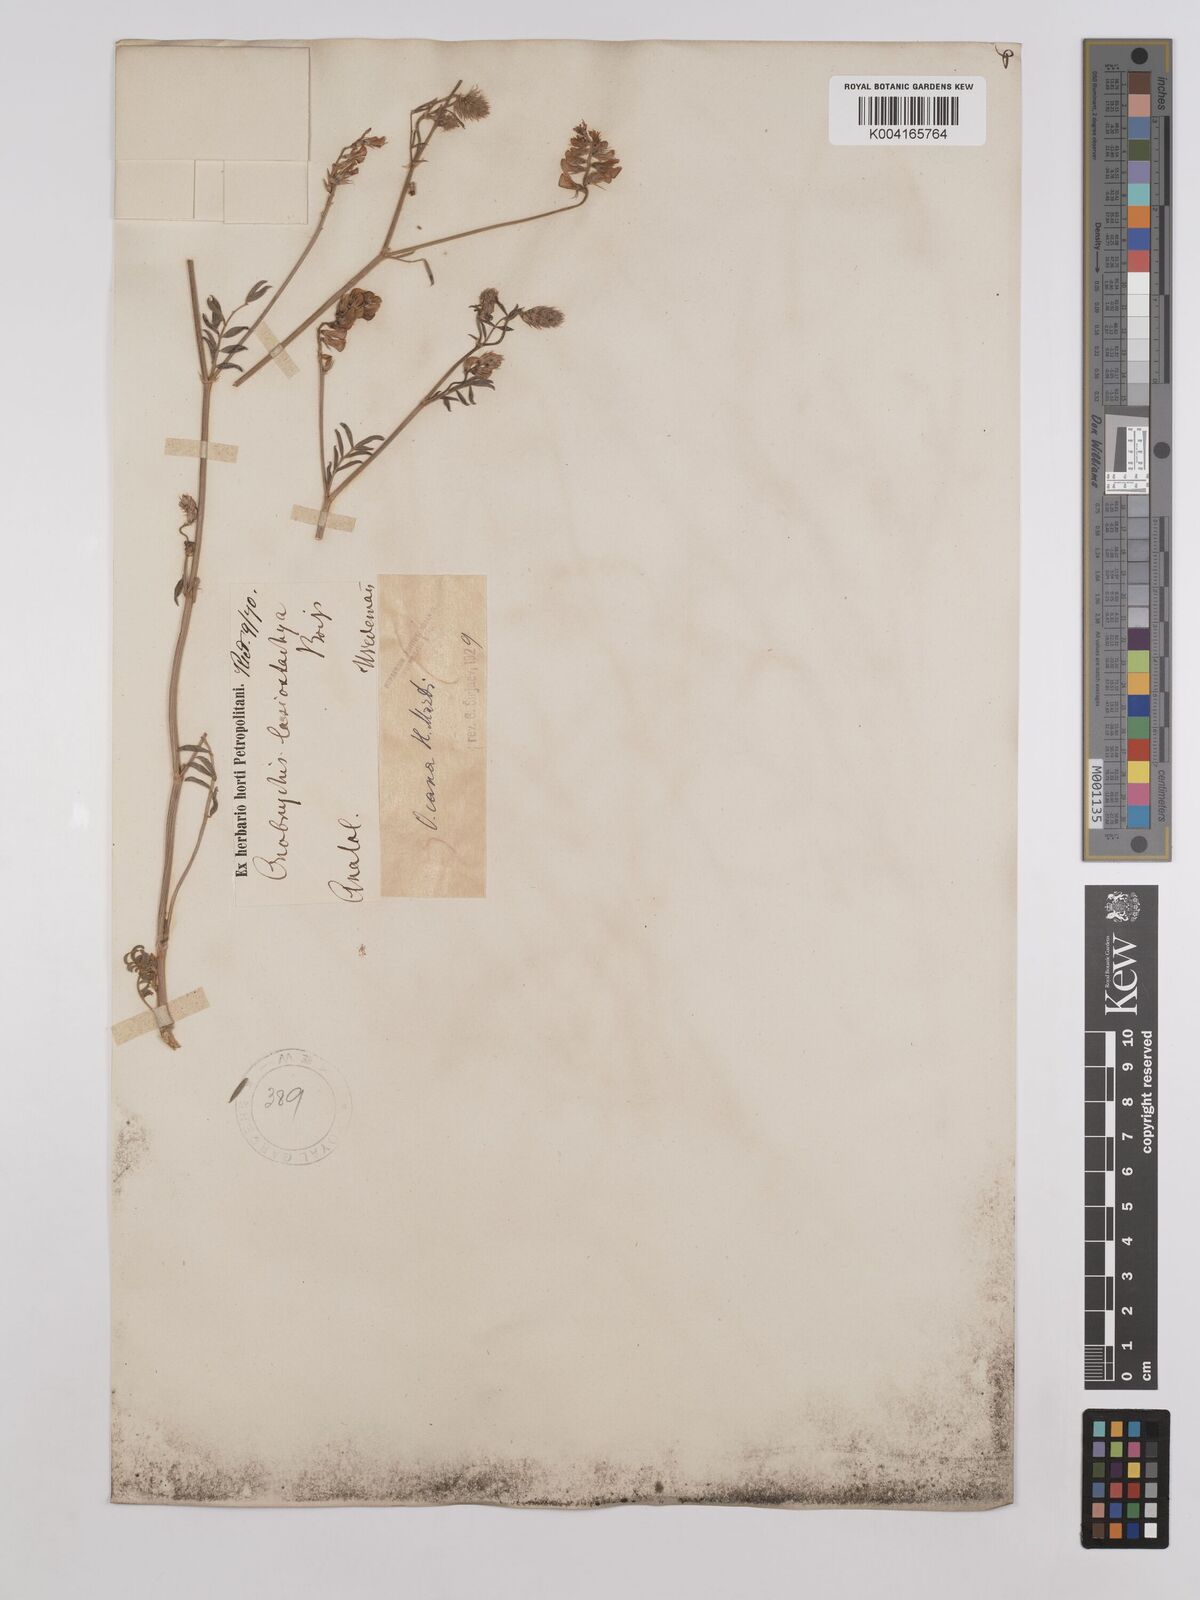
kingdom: Plantae
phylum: Tracheophyta
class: Magnoliopsida
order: Fabales
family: Fabaceae
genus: Onobrychis
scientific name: Onobrychis arenaria
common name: Sand esparcet
